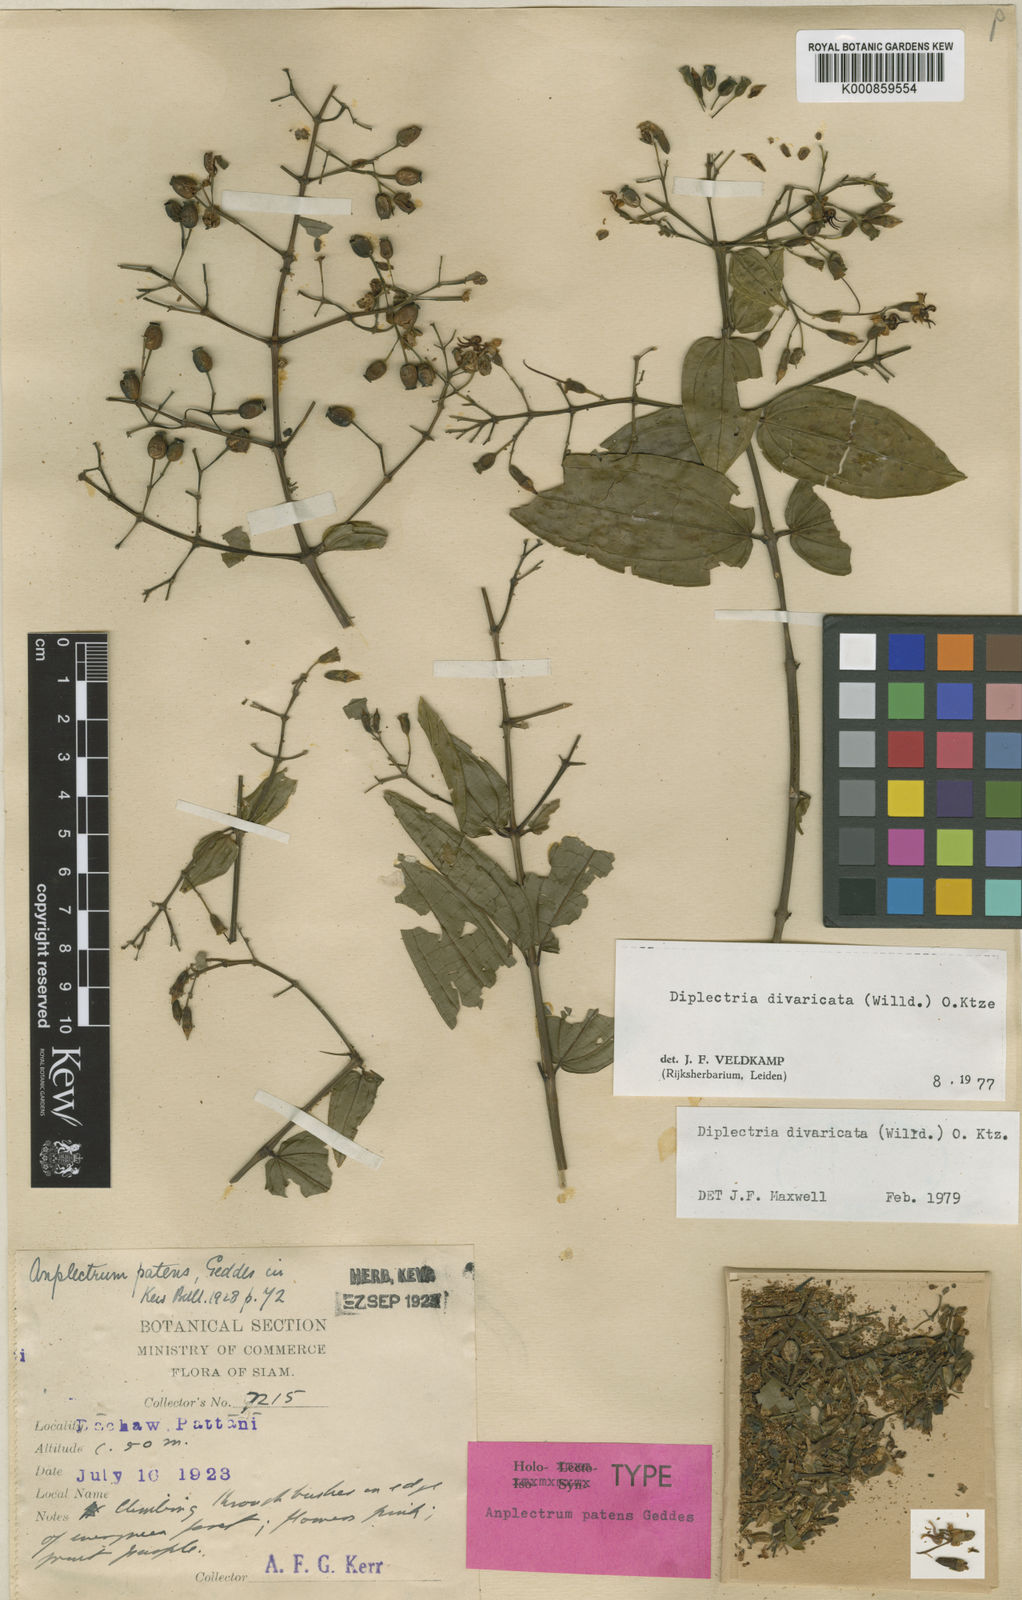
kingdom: Plantae
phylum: Tracheophyta
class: Magnoliopsida
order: Myrtales
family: Melastomataceae
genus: Diplectria
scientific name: Diplectria divaricata
